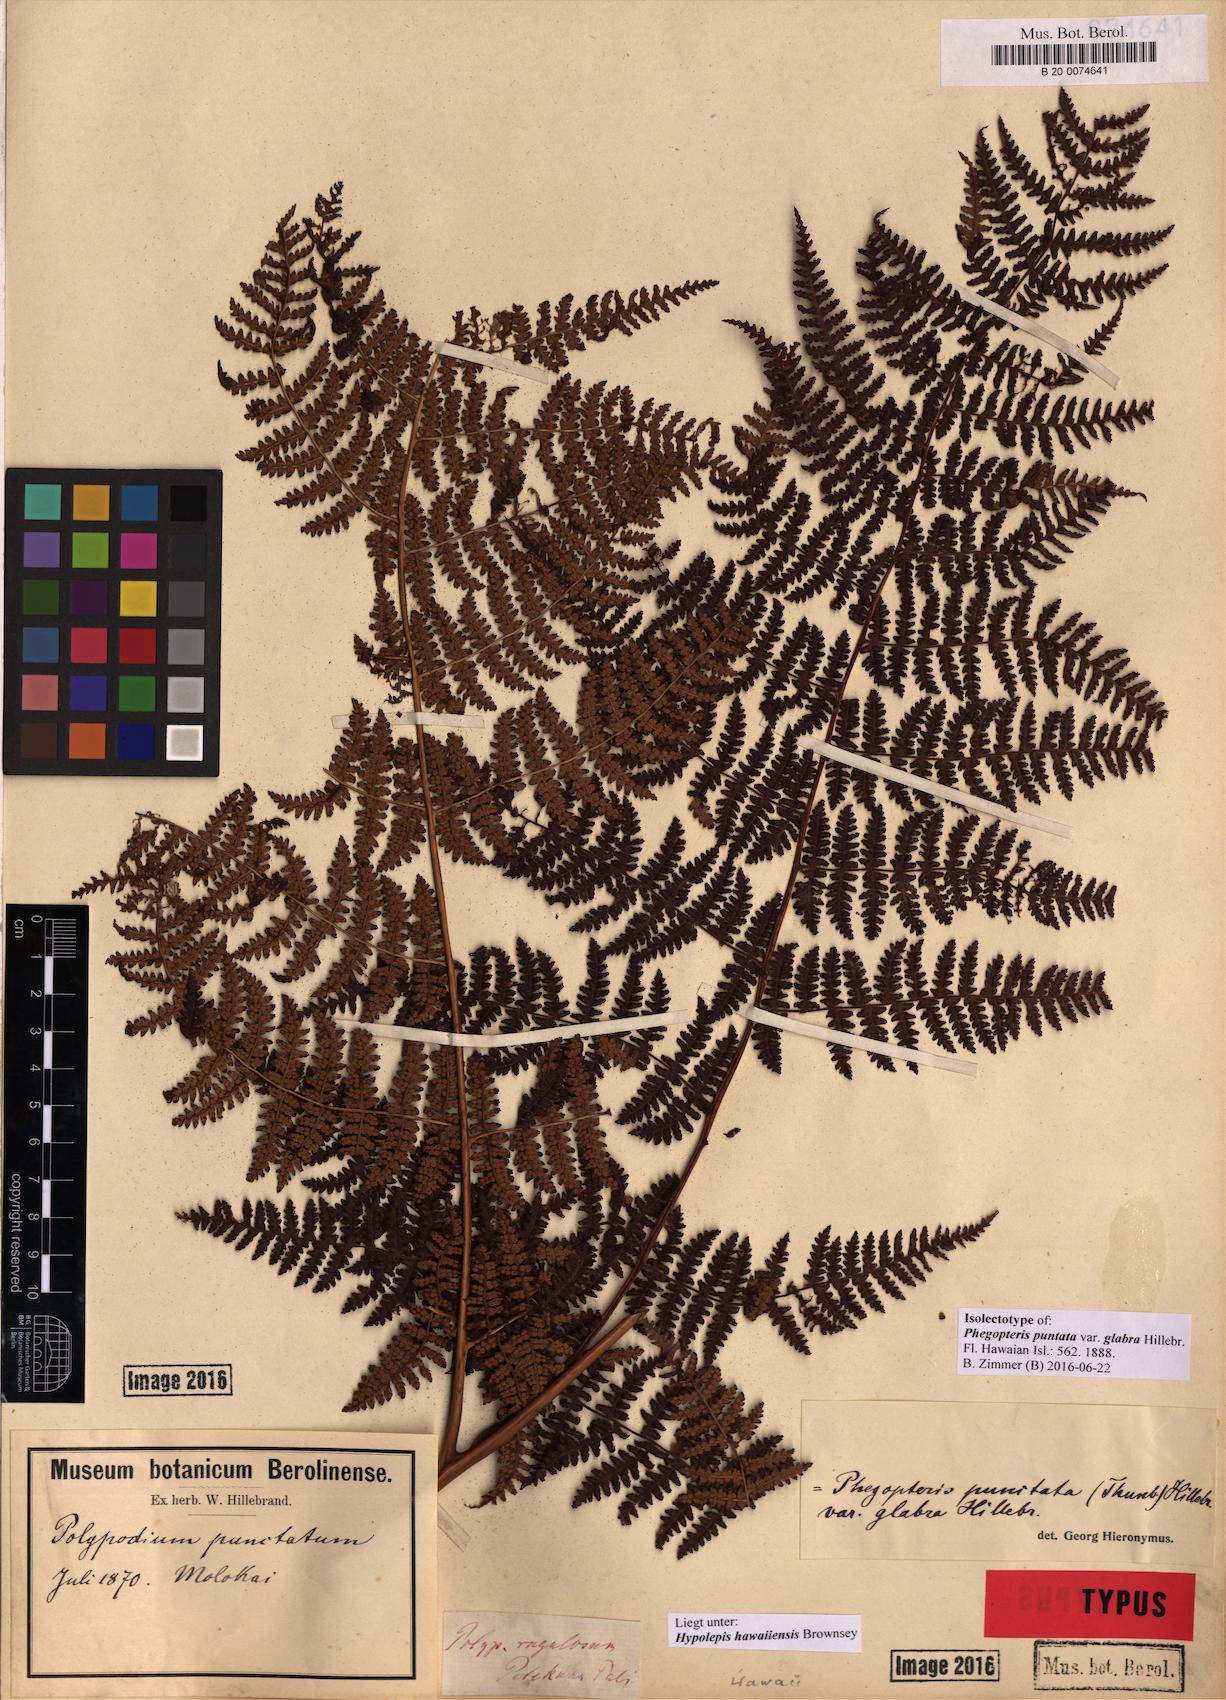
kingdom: Plantae
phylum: Tracheophyta
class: Polypodiopsida
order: Polypodiales
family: Dennstaedtiaceae
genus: Hypolepis
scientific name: Hypolepis hawaiiensis
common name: Dotted beadfern
